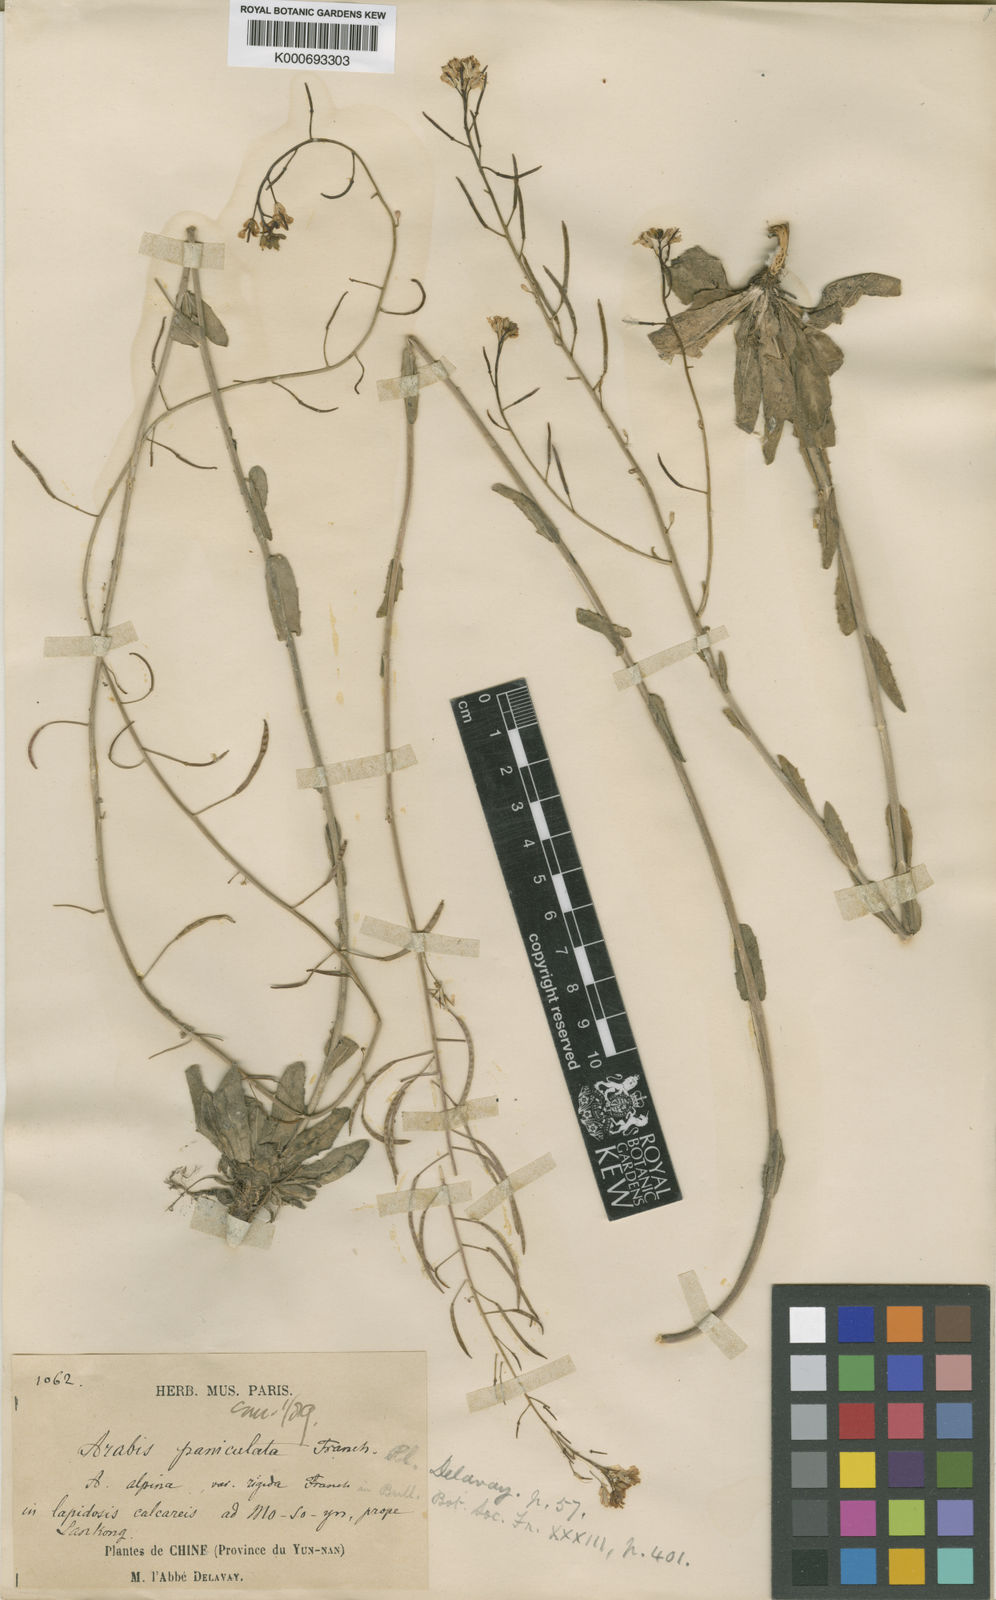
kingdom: Plantae
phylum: Tracheophyta
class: Magnoliopsida
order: Brassicales
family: Brassicaceae
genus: Arabis
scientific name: Arabis paniculata
